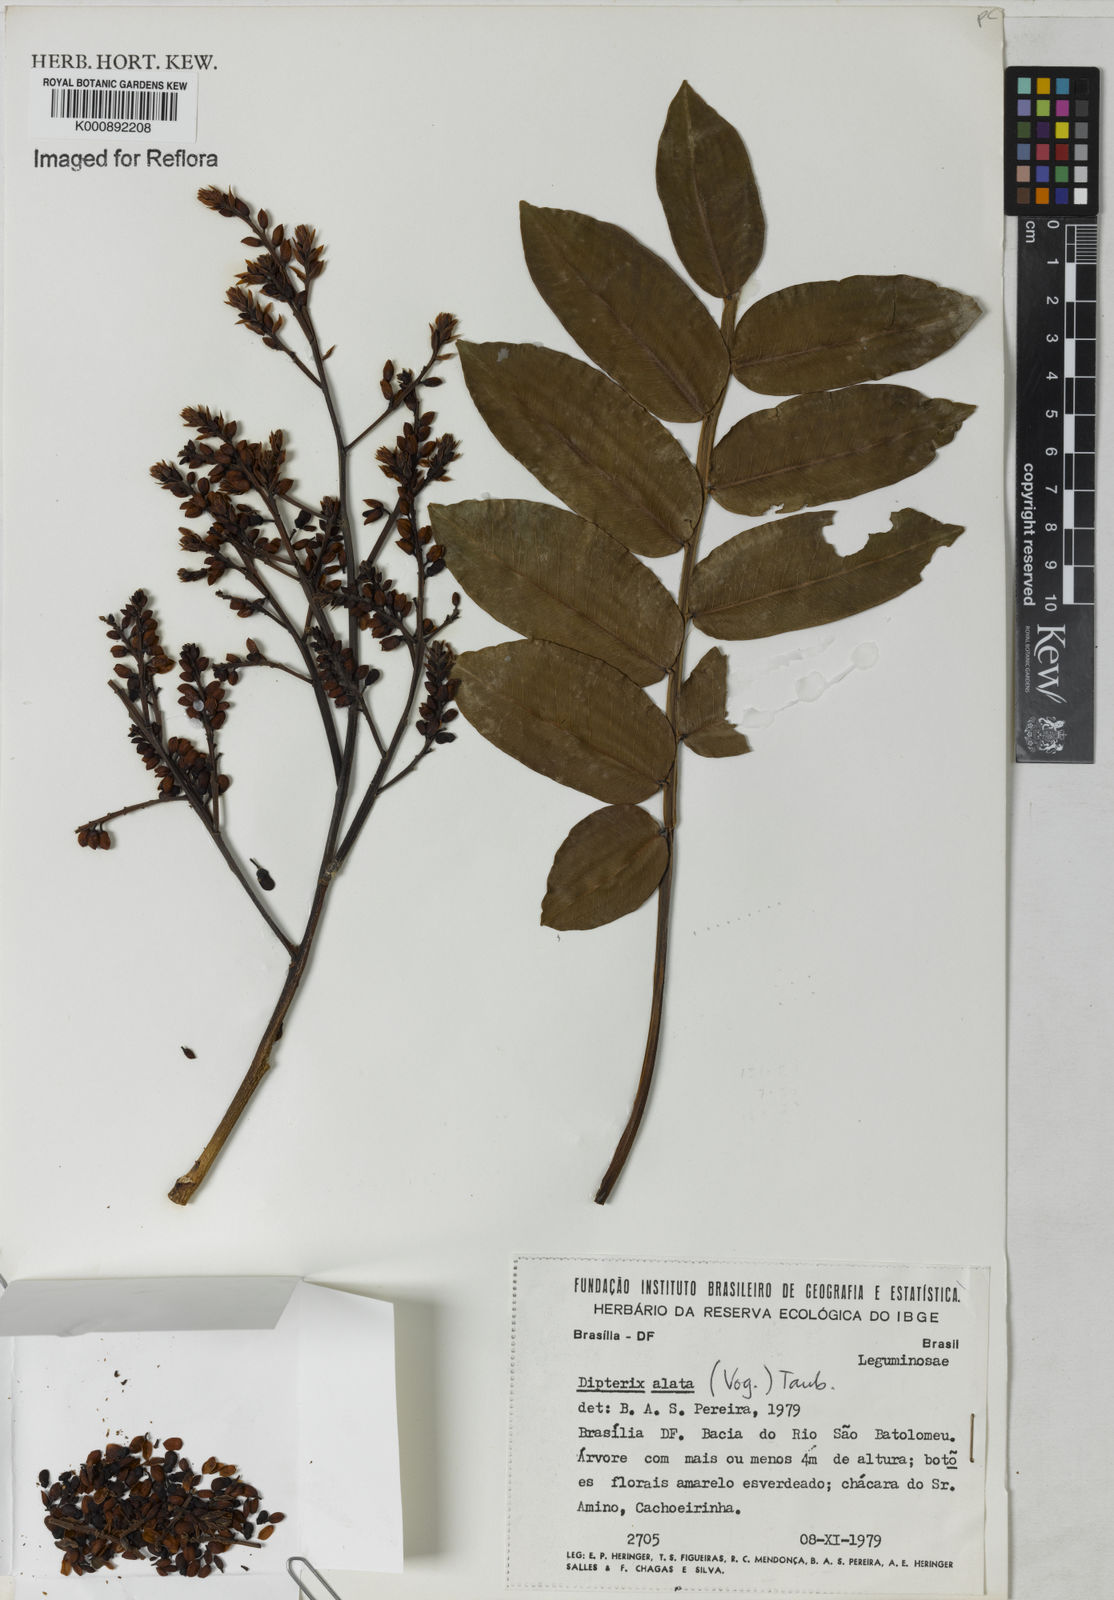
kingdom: Plantae
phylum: Tracheophyta
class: Magnoliopsida
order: Fabales
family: Fabaceae
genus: Dipteryx
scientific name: Dipteryx alata
